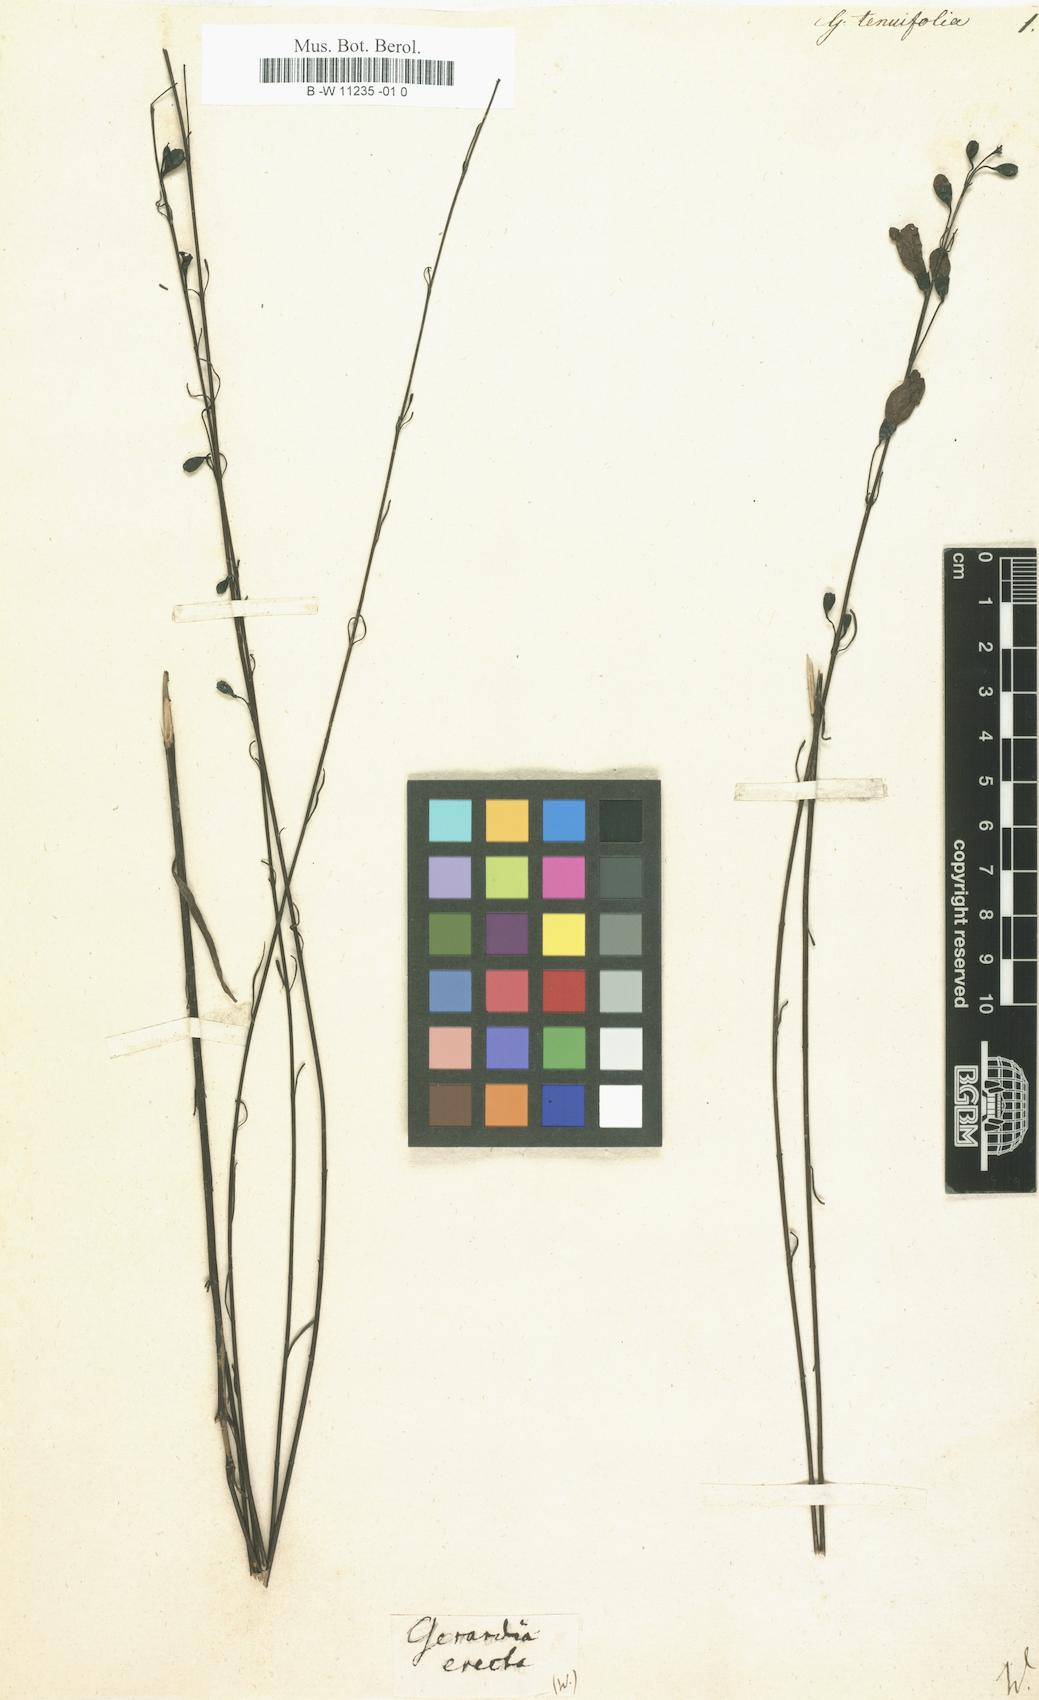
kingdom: Plantae
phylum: Tracheophyta
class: Magnoliopsida
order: Lamiales
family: Orobanchaceae
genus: Agalinis
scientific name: Agalinis tenuifolia
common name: Slender agalinis
